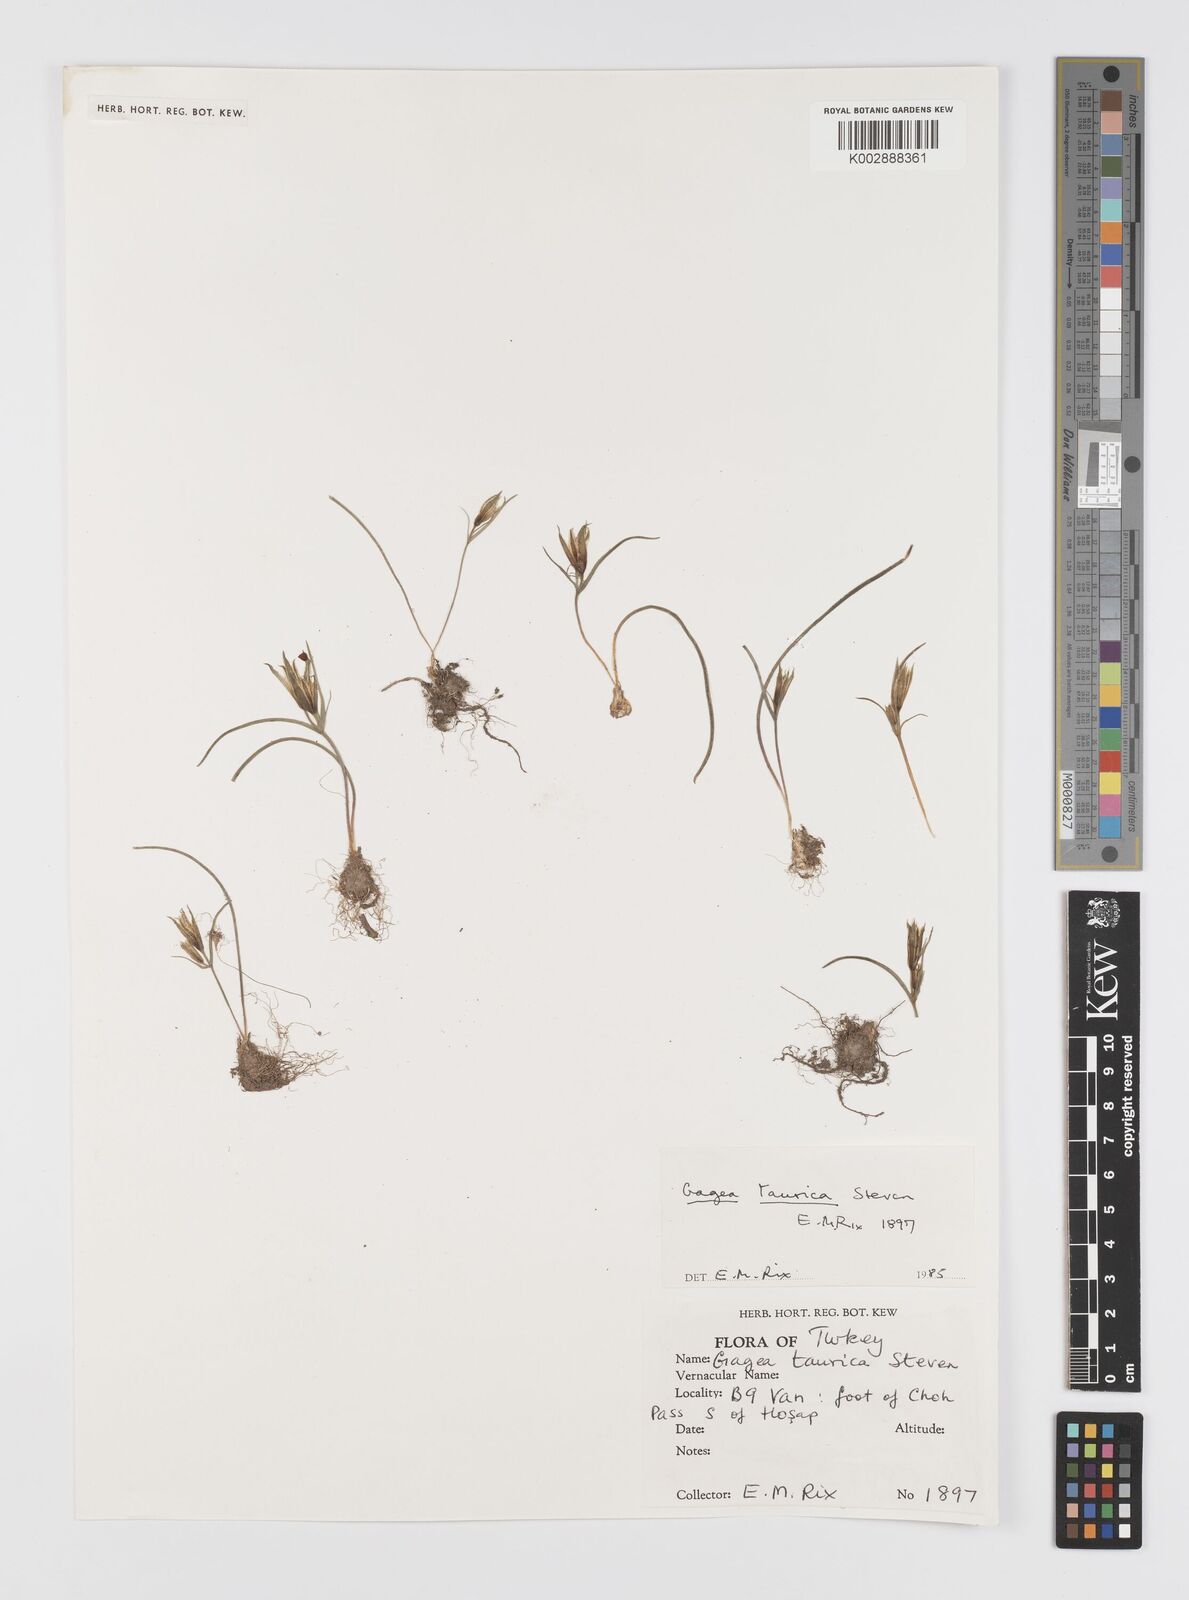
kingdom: Plantae
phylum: Tracheophyta
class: Liliopsida
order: Liliales
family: Liliaceae
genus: Gagea
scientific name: Gagea taurica
